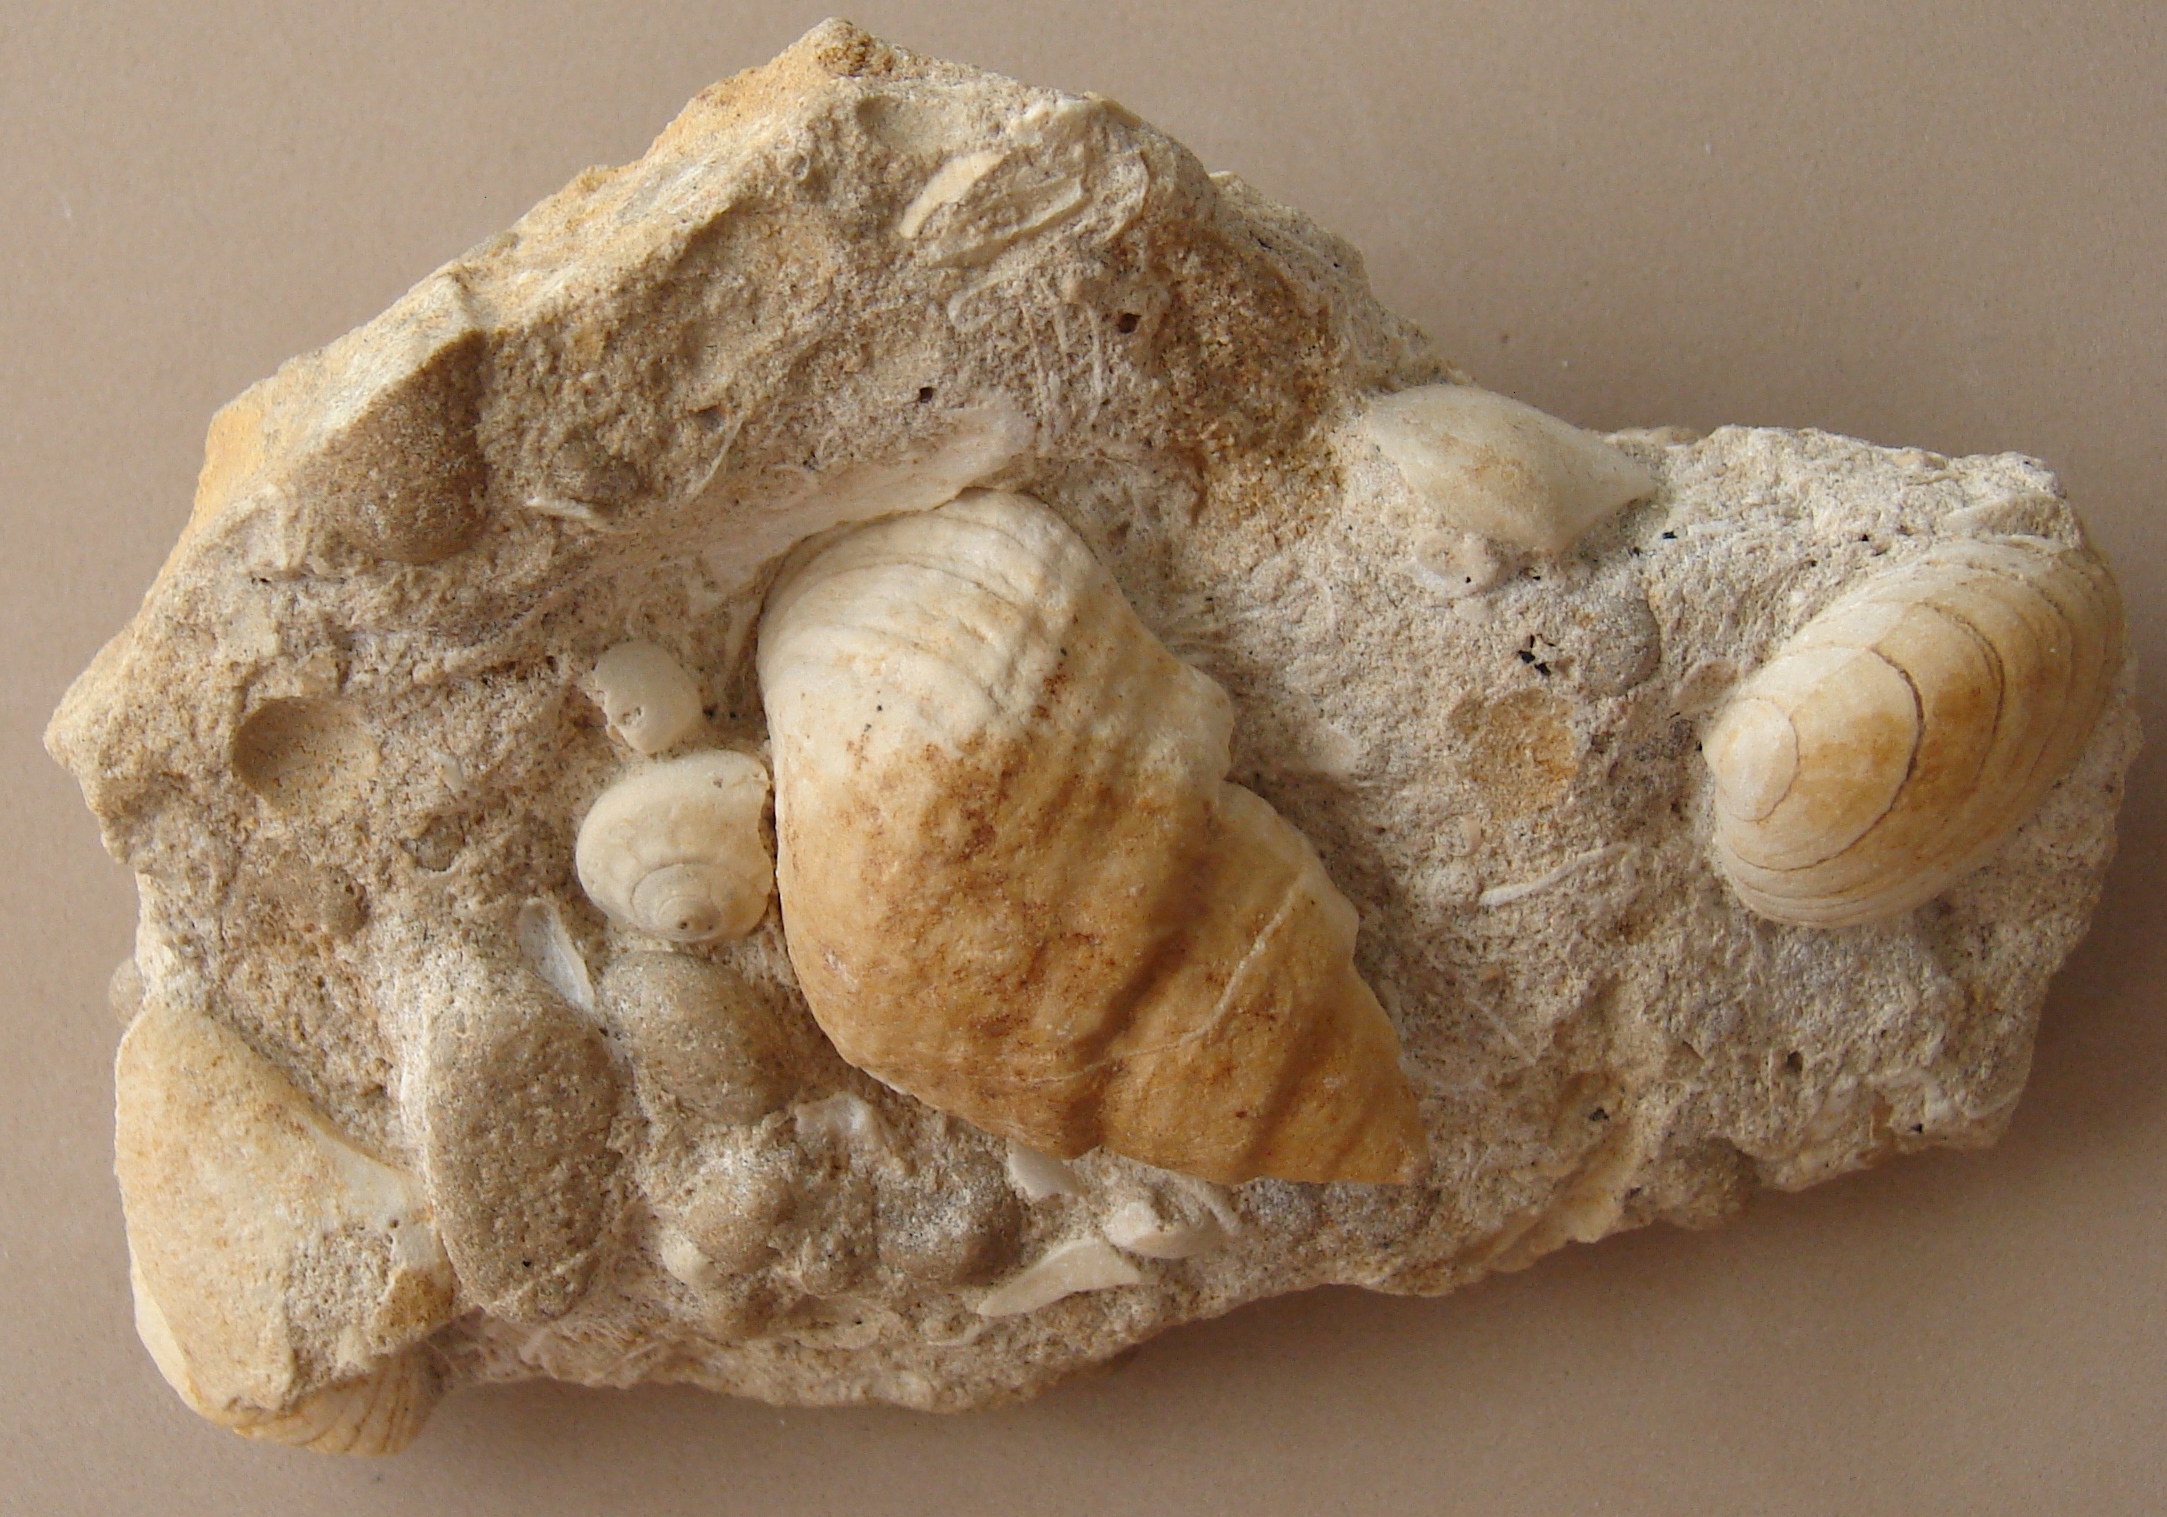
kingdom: Animalia
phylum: Mollusca
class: Gastropoda
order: Neogastropoda
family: Purpurinidae
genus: Microschiza
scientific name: Microschiza
